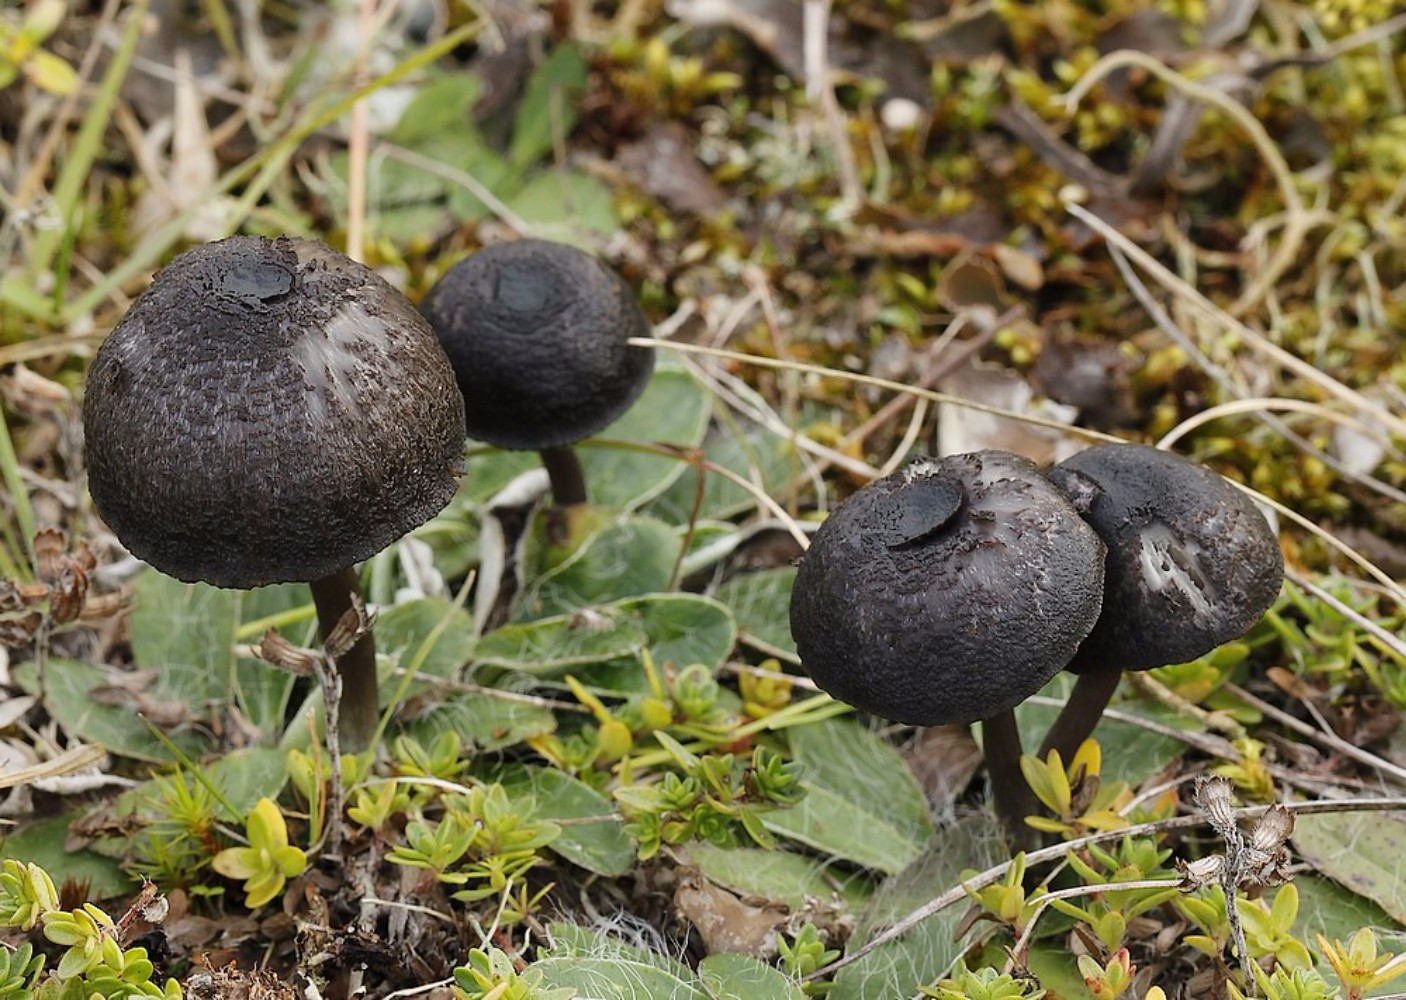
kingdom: Fungi
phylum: Basidiomycota
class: Agaricomycetes
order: Agaricales
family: Entolomataceae
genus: Entoloma
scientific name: Entoloma
